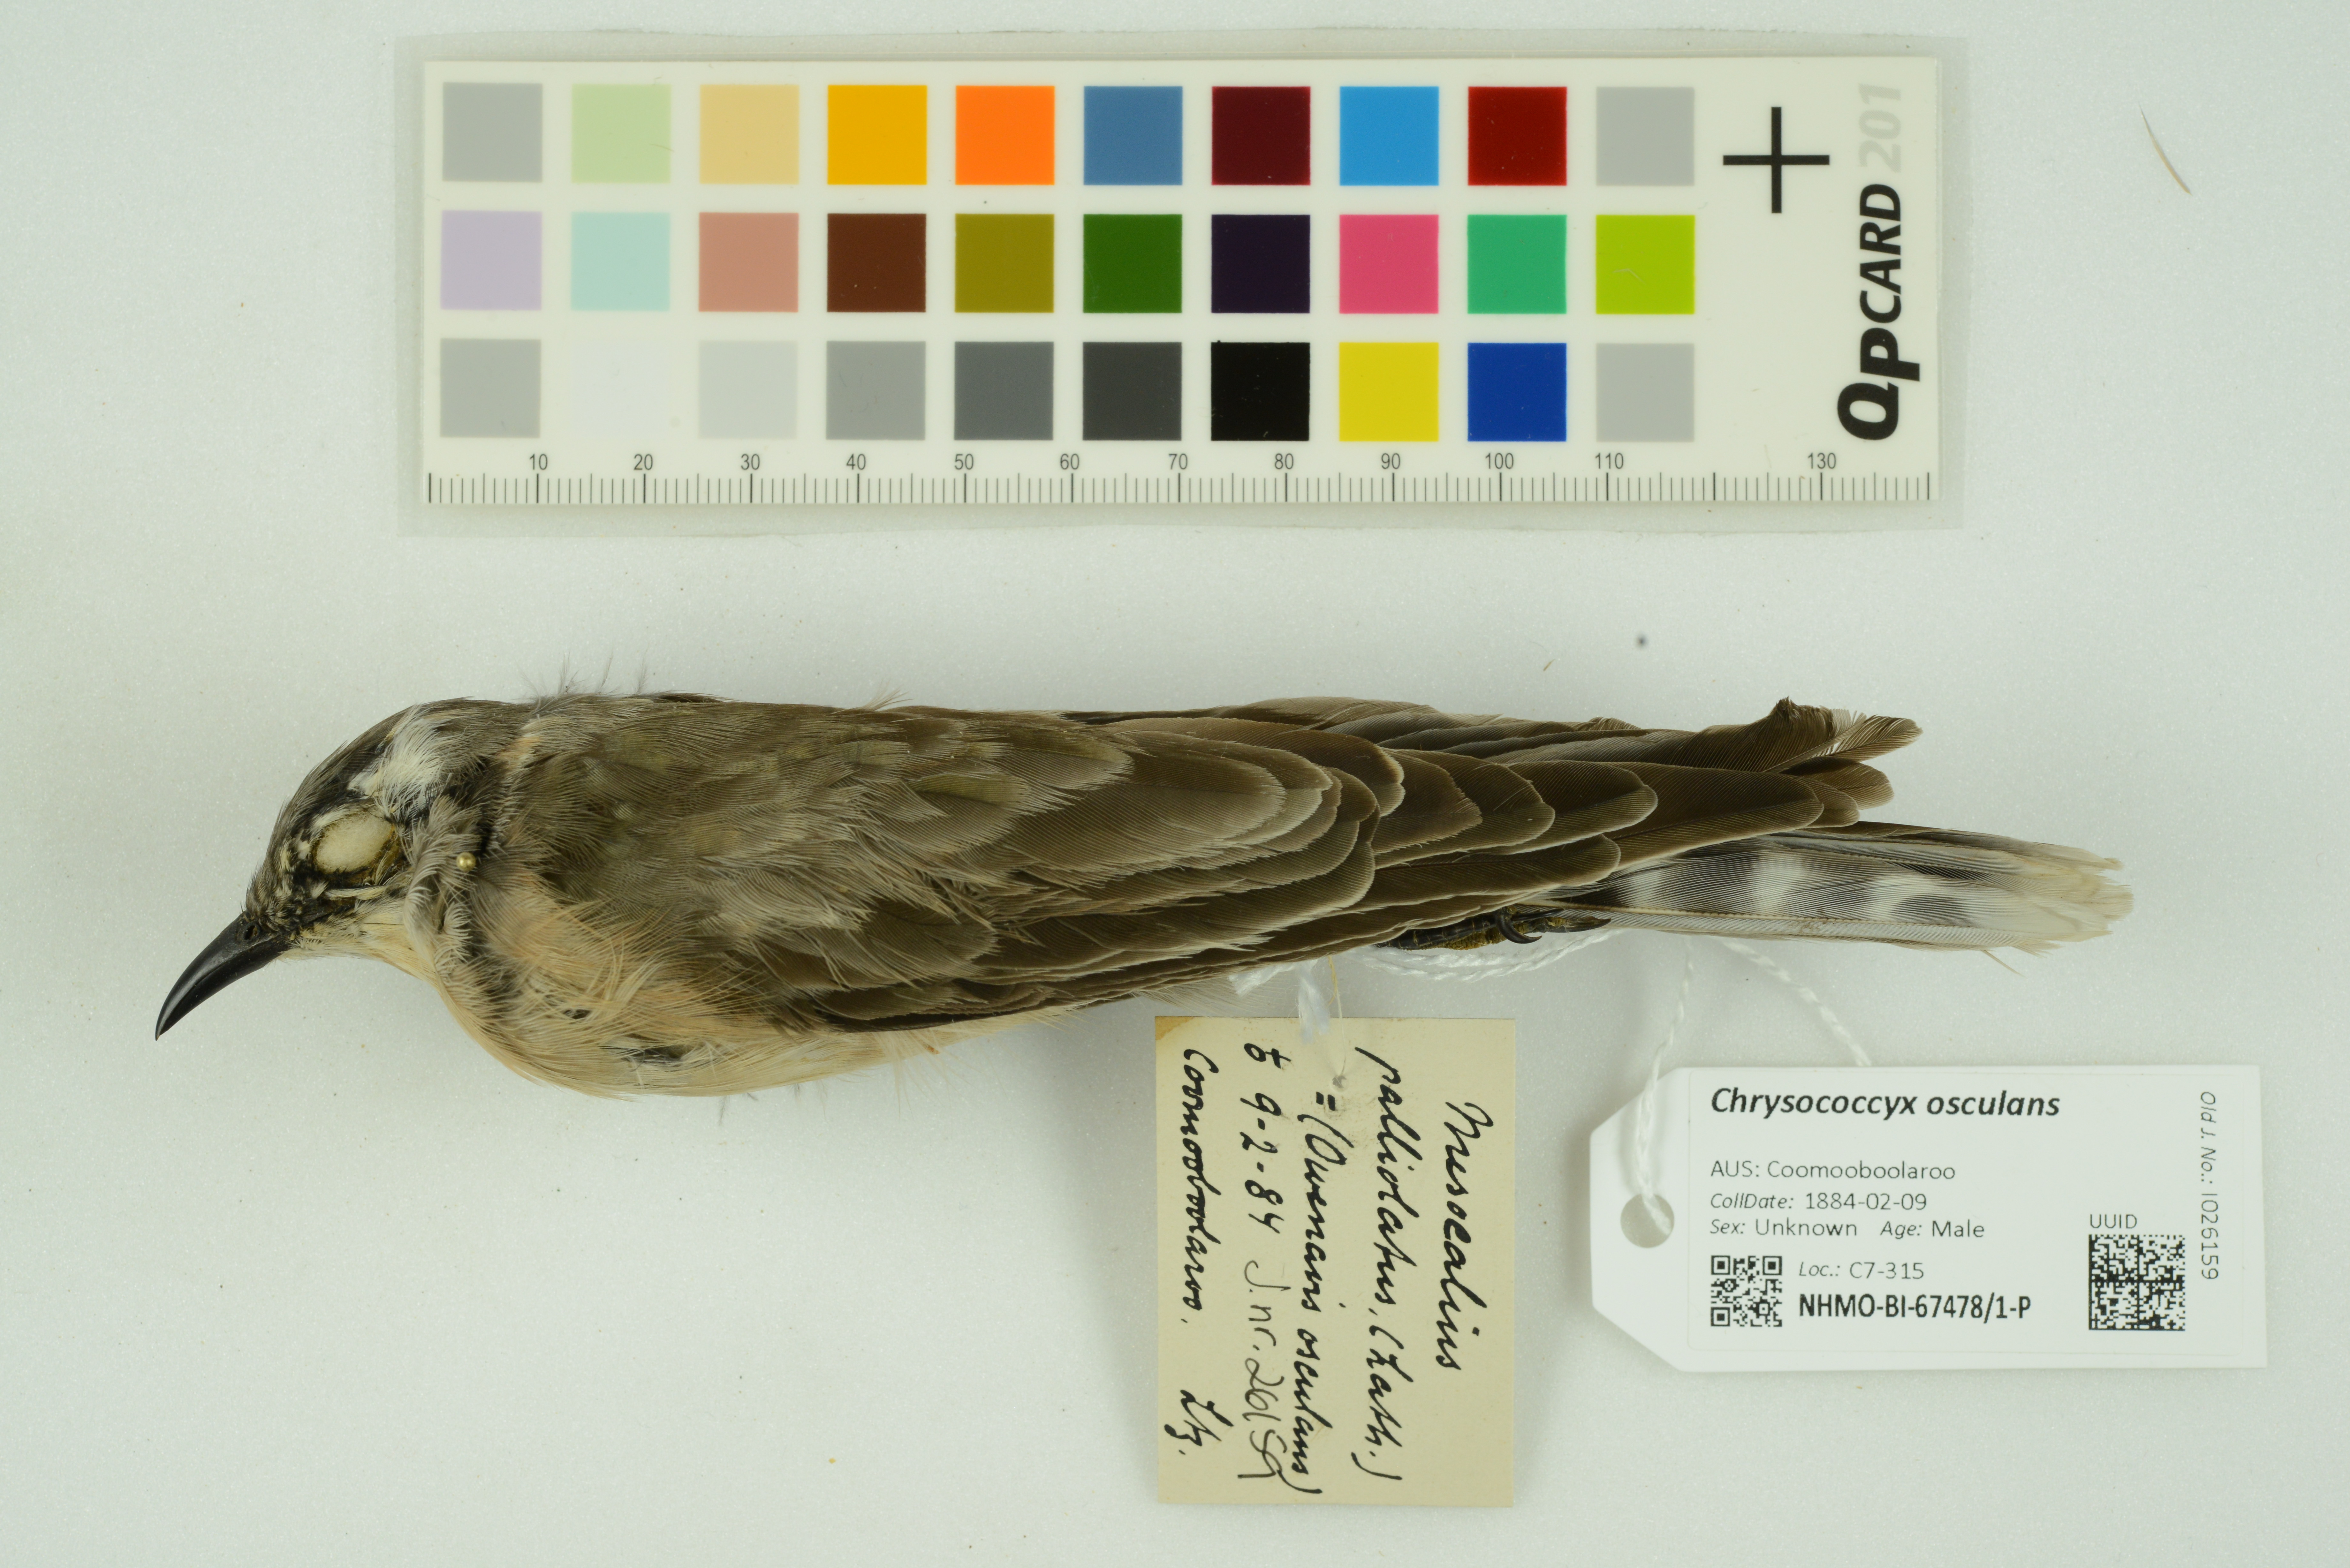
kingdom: Animalia
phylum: Chordata
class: Aves
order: Cuculiformes
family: Cuculidae
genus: Chrysococcyx
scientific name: Chrysococcyx osculans
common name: Black-eared cuckoo
